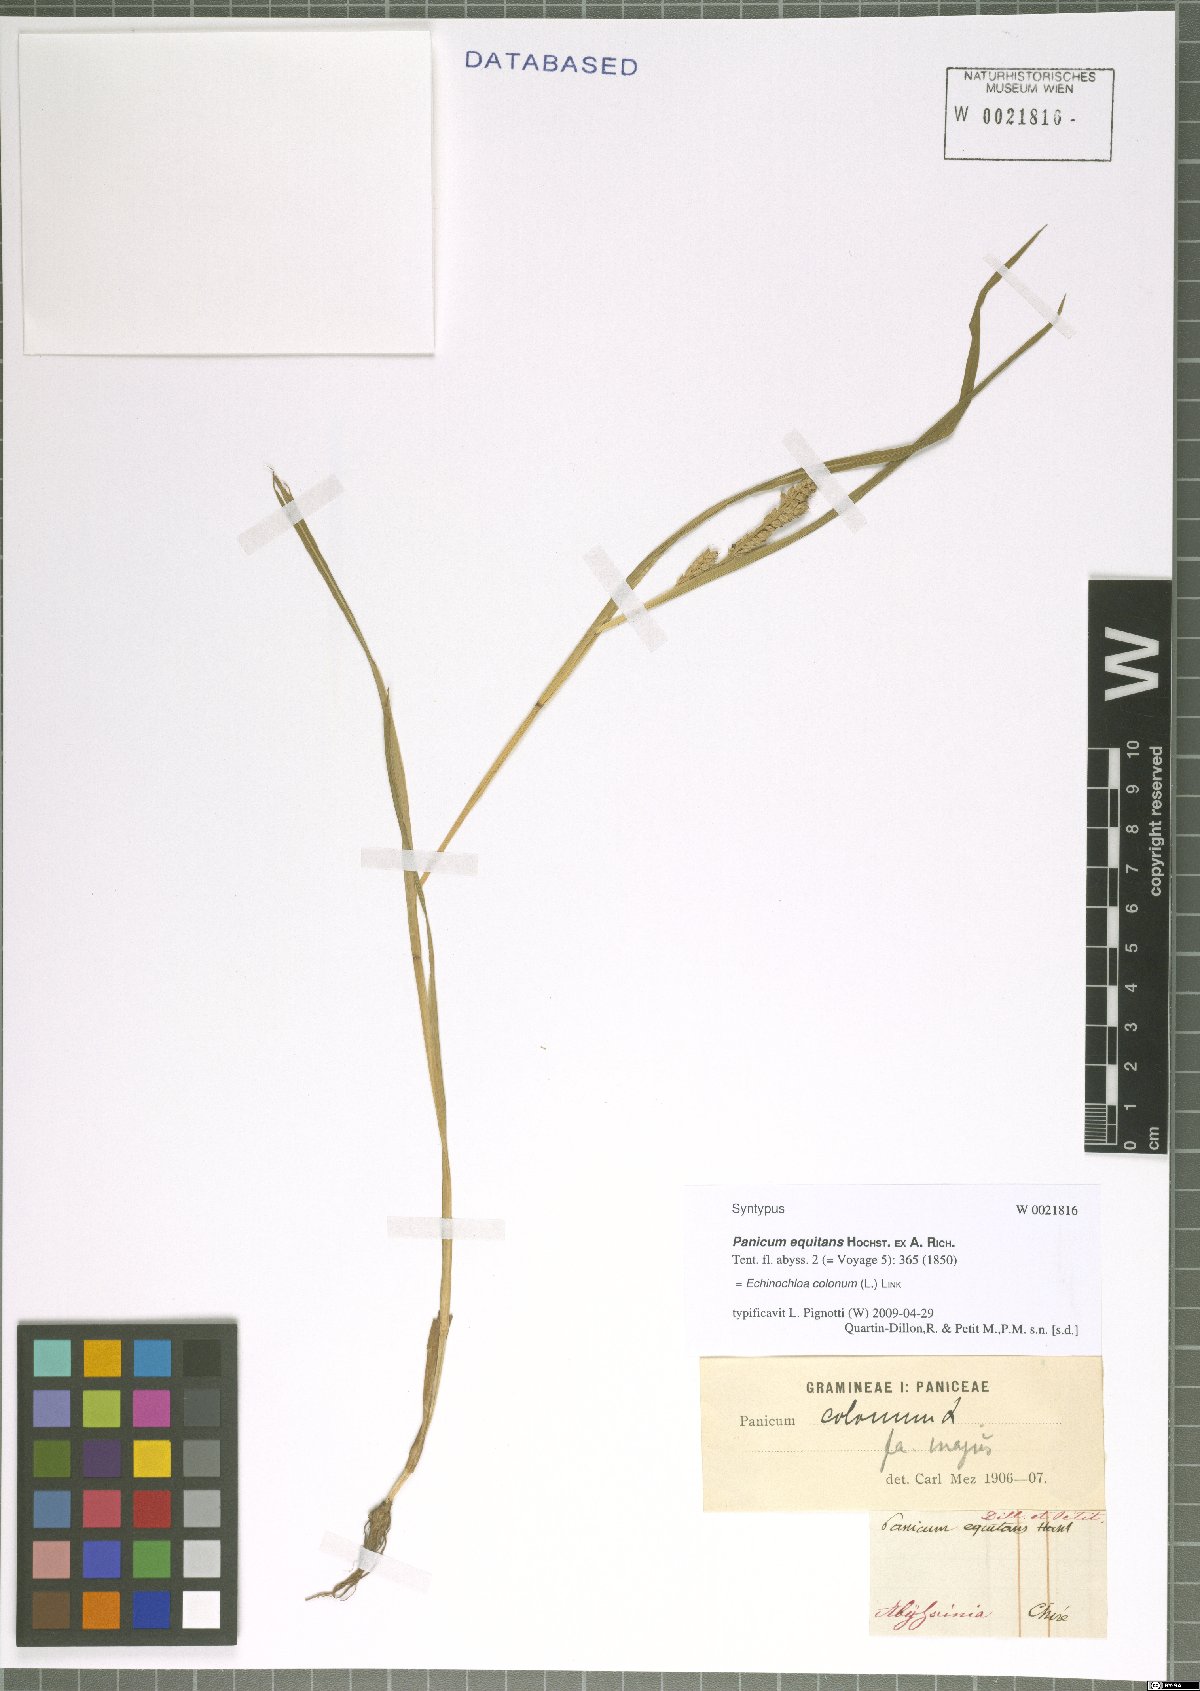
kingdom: Plantae
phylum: Tracheophyta
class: Liliopsida
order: Poales
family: Poaceae
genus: Echinochloa
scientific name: Echinochloa colonum
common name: Jungle rice
